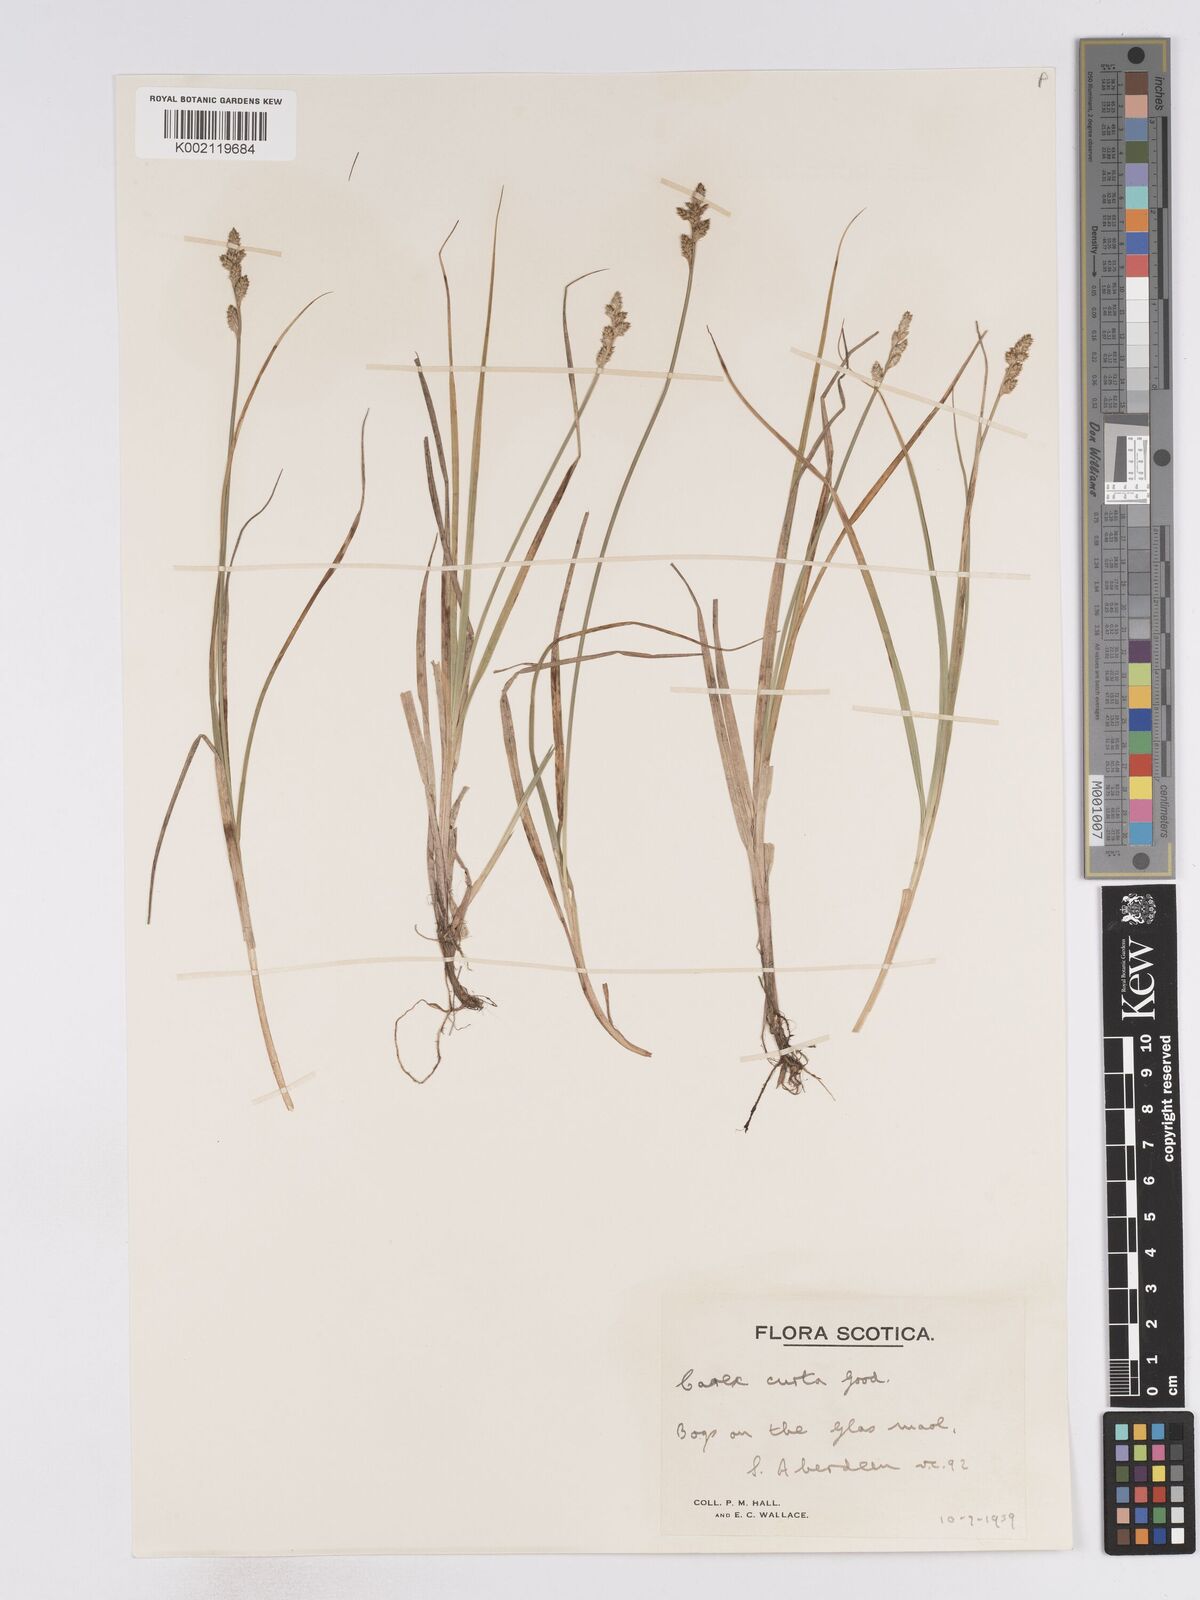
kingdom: Plantae
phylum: Tracheophyta
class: Liliopsida
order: Poales
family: Cyperaceae
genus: Carex
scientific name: Carex curta
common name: White sedge
